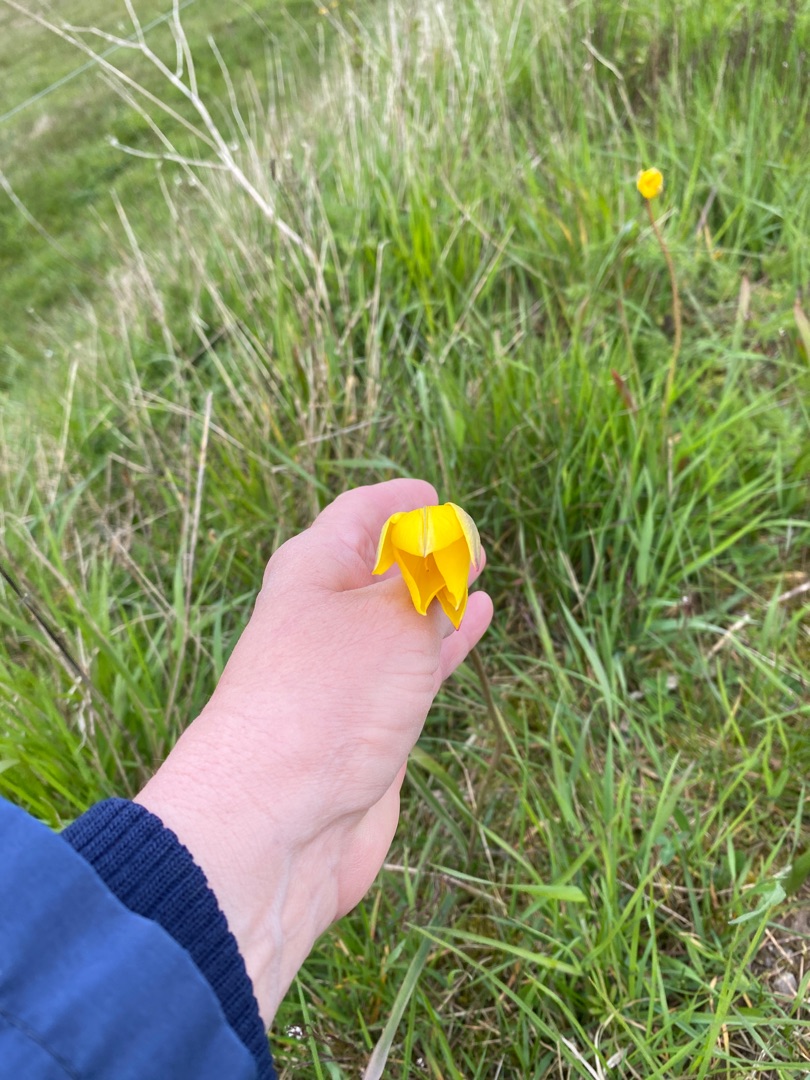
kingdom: Plantae
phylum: Tracheophyta
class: Liliopsida
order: Liliales
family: Liliaceae
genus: Tulipa
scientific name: Tulipa sylvestris
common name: Vild tulipan
